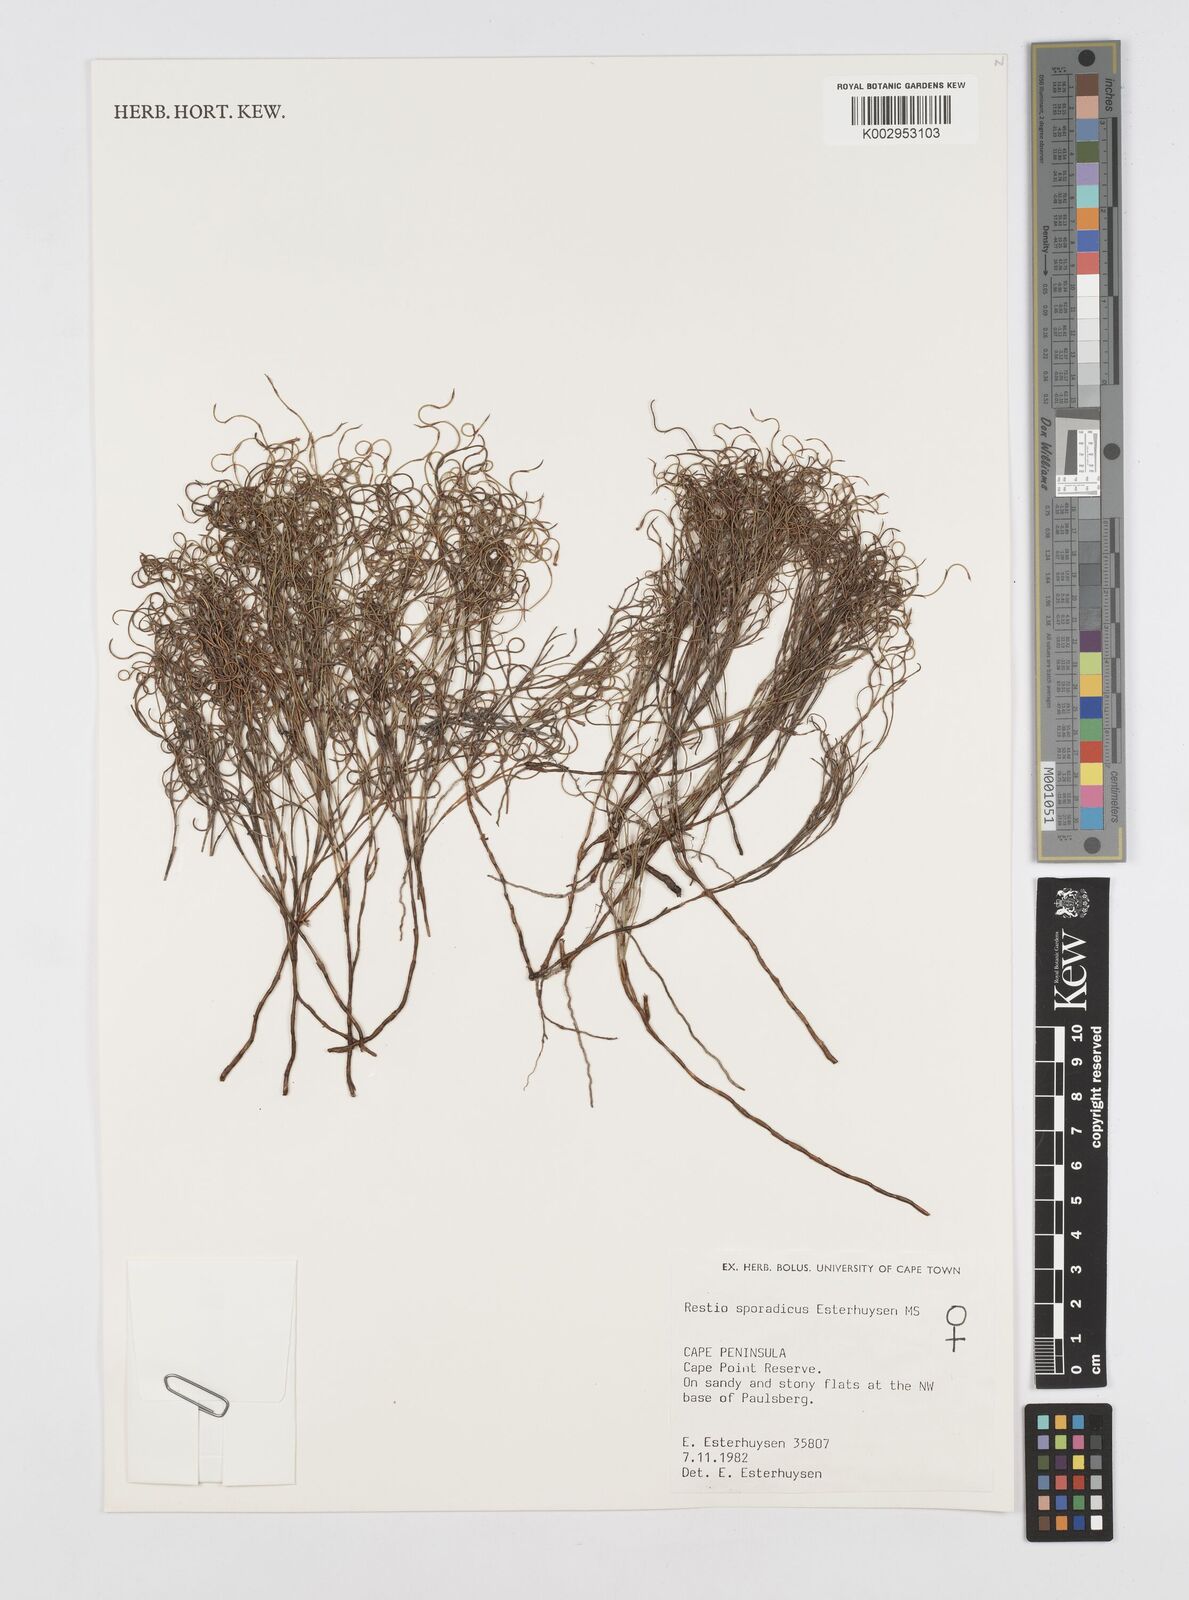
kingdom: Plantae
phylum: Tracheophyta
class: Liliopsida
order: Poales
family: Restionaceae
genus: Restio
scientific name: Restio sporadicus
